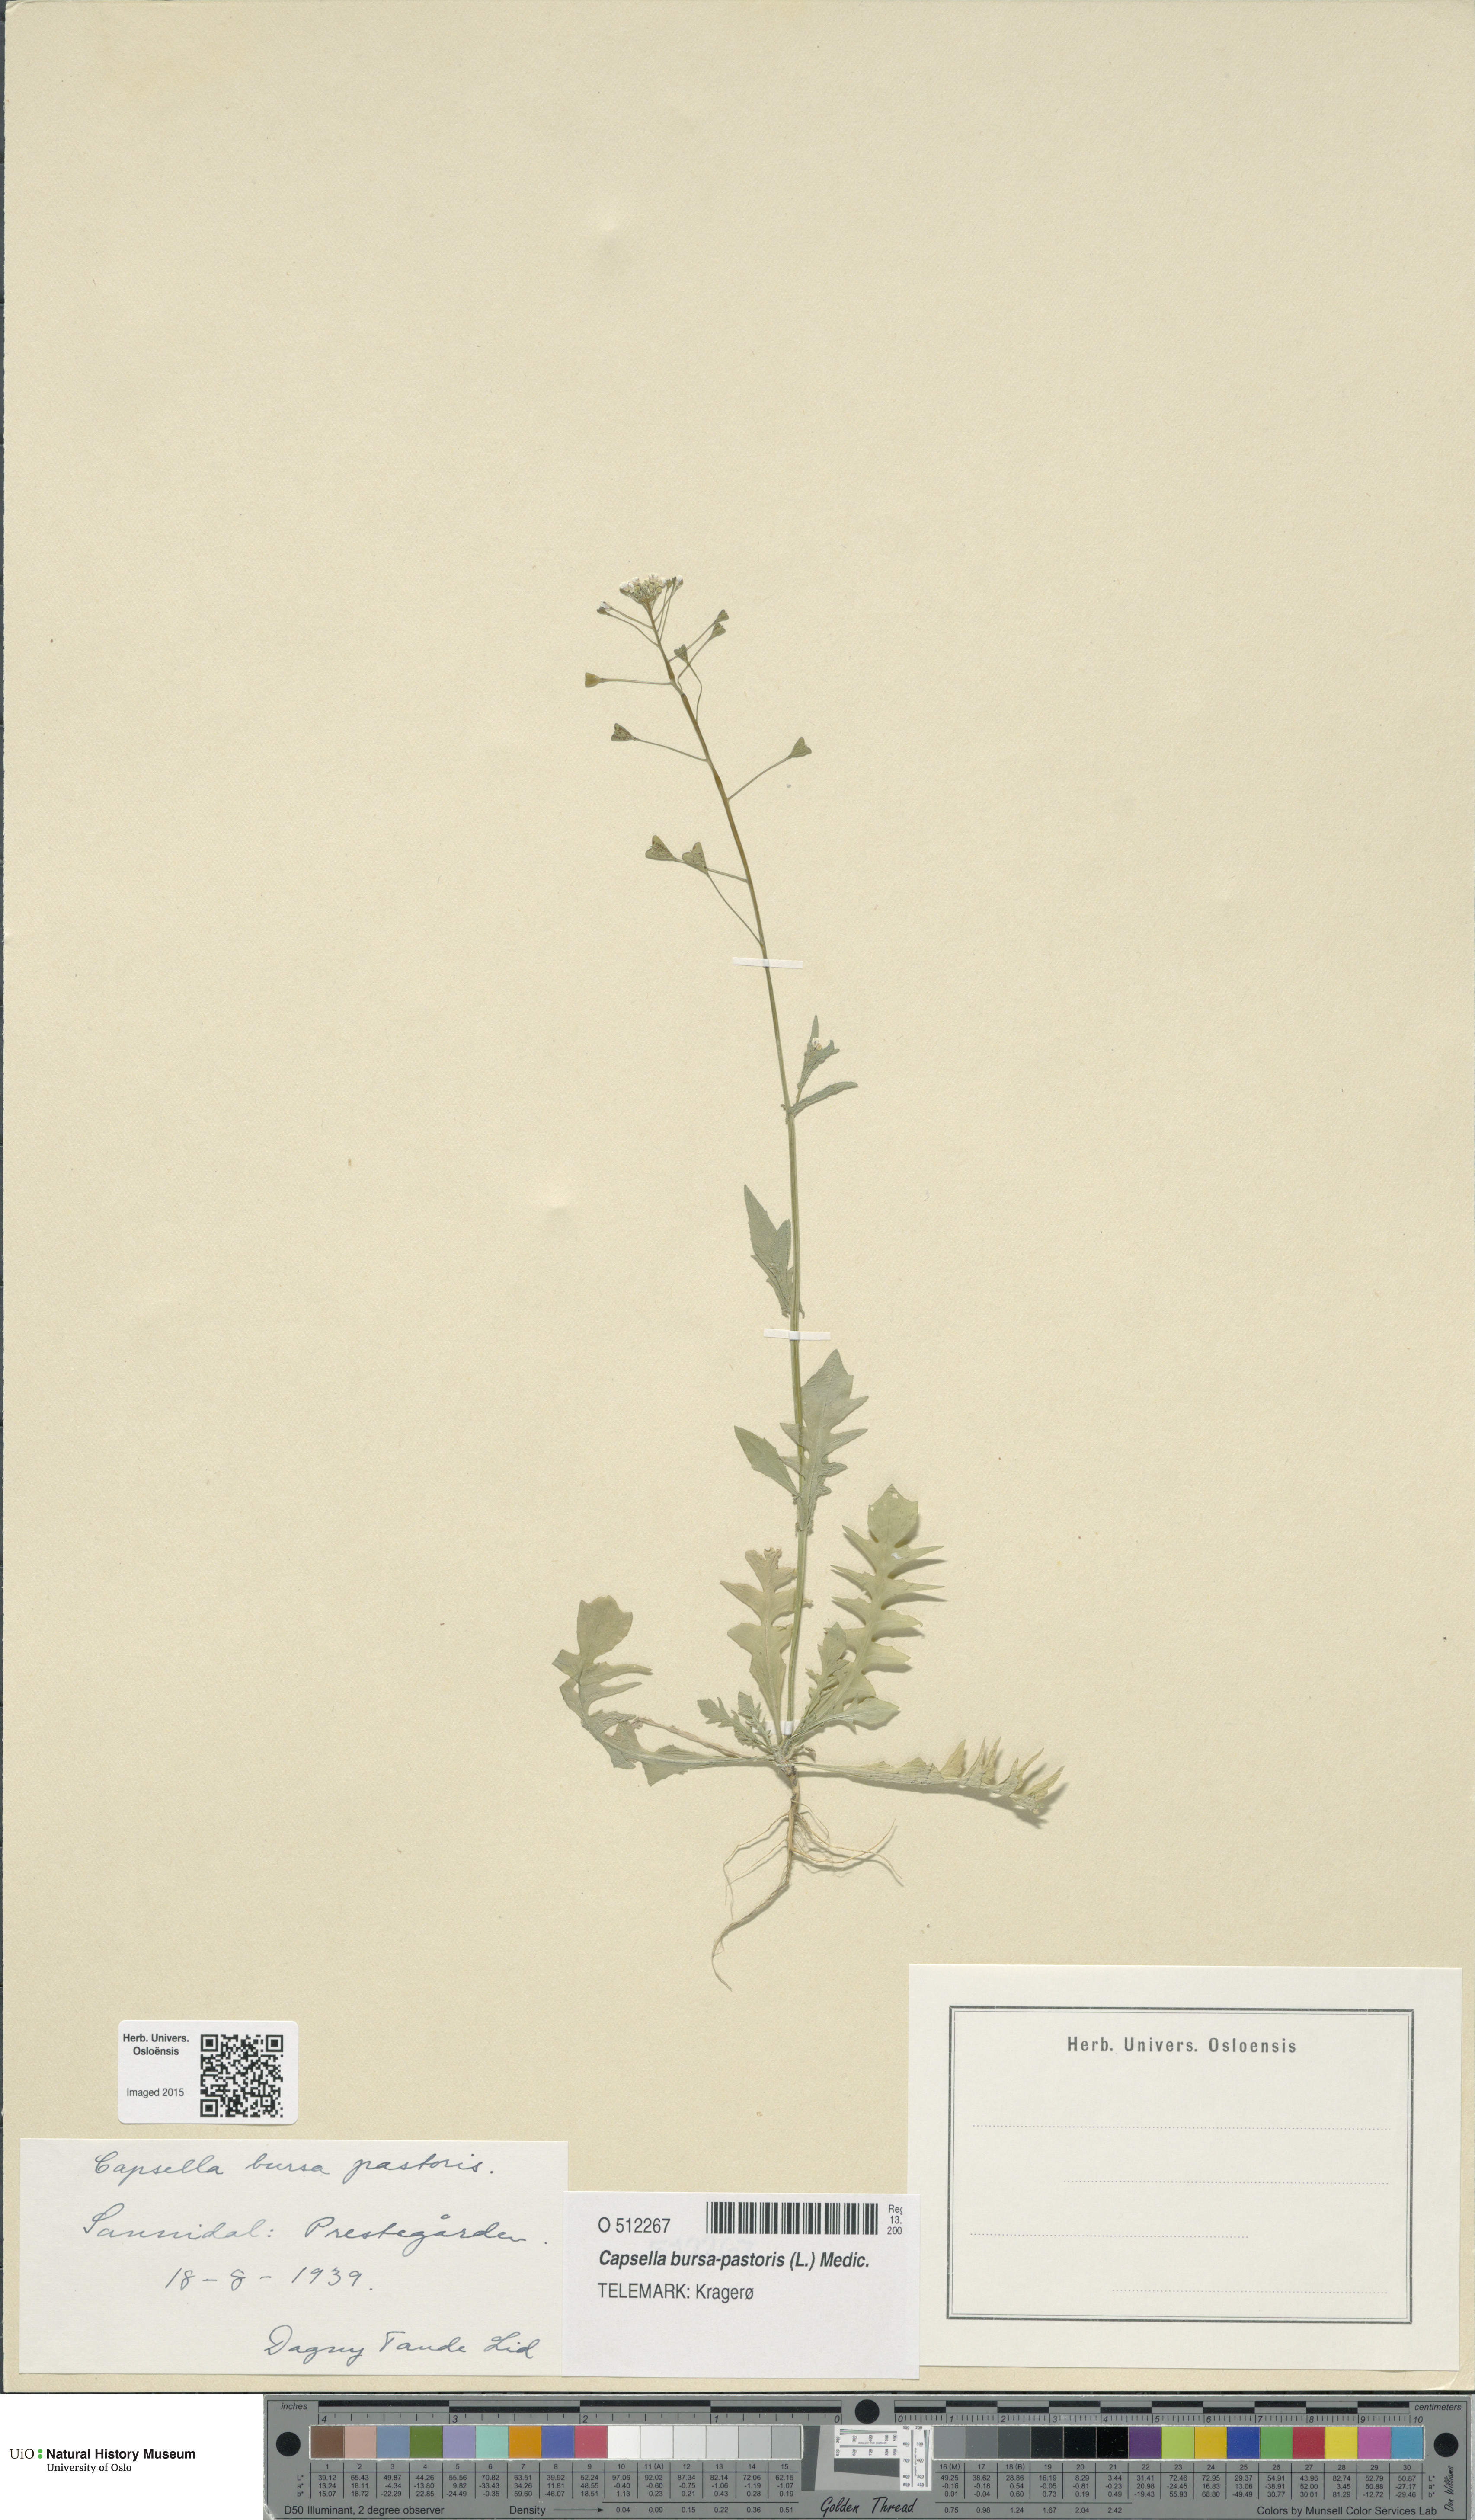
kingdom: Plantae
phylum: Tracheophyta
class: Magnoliopsida
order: Brassicales
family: Brassicaceae
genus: Capsella
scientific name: Capsella bursa-pastoris
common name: Shepherd's purse
